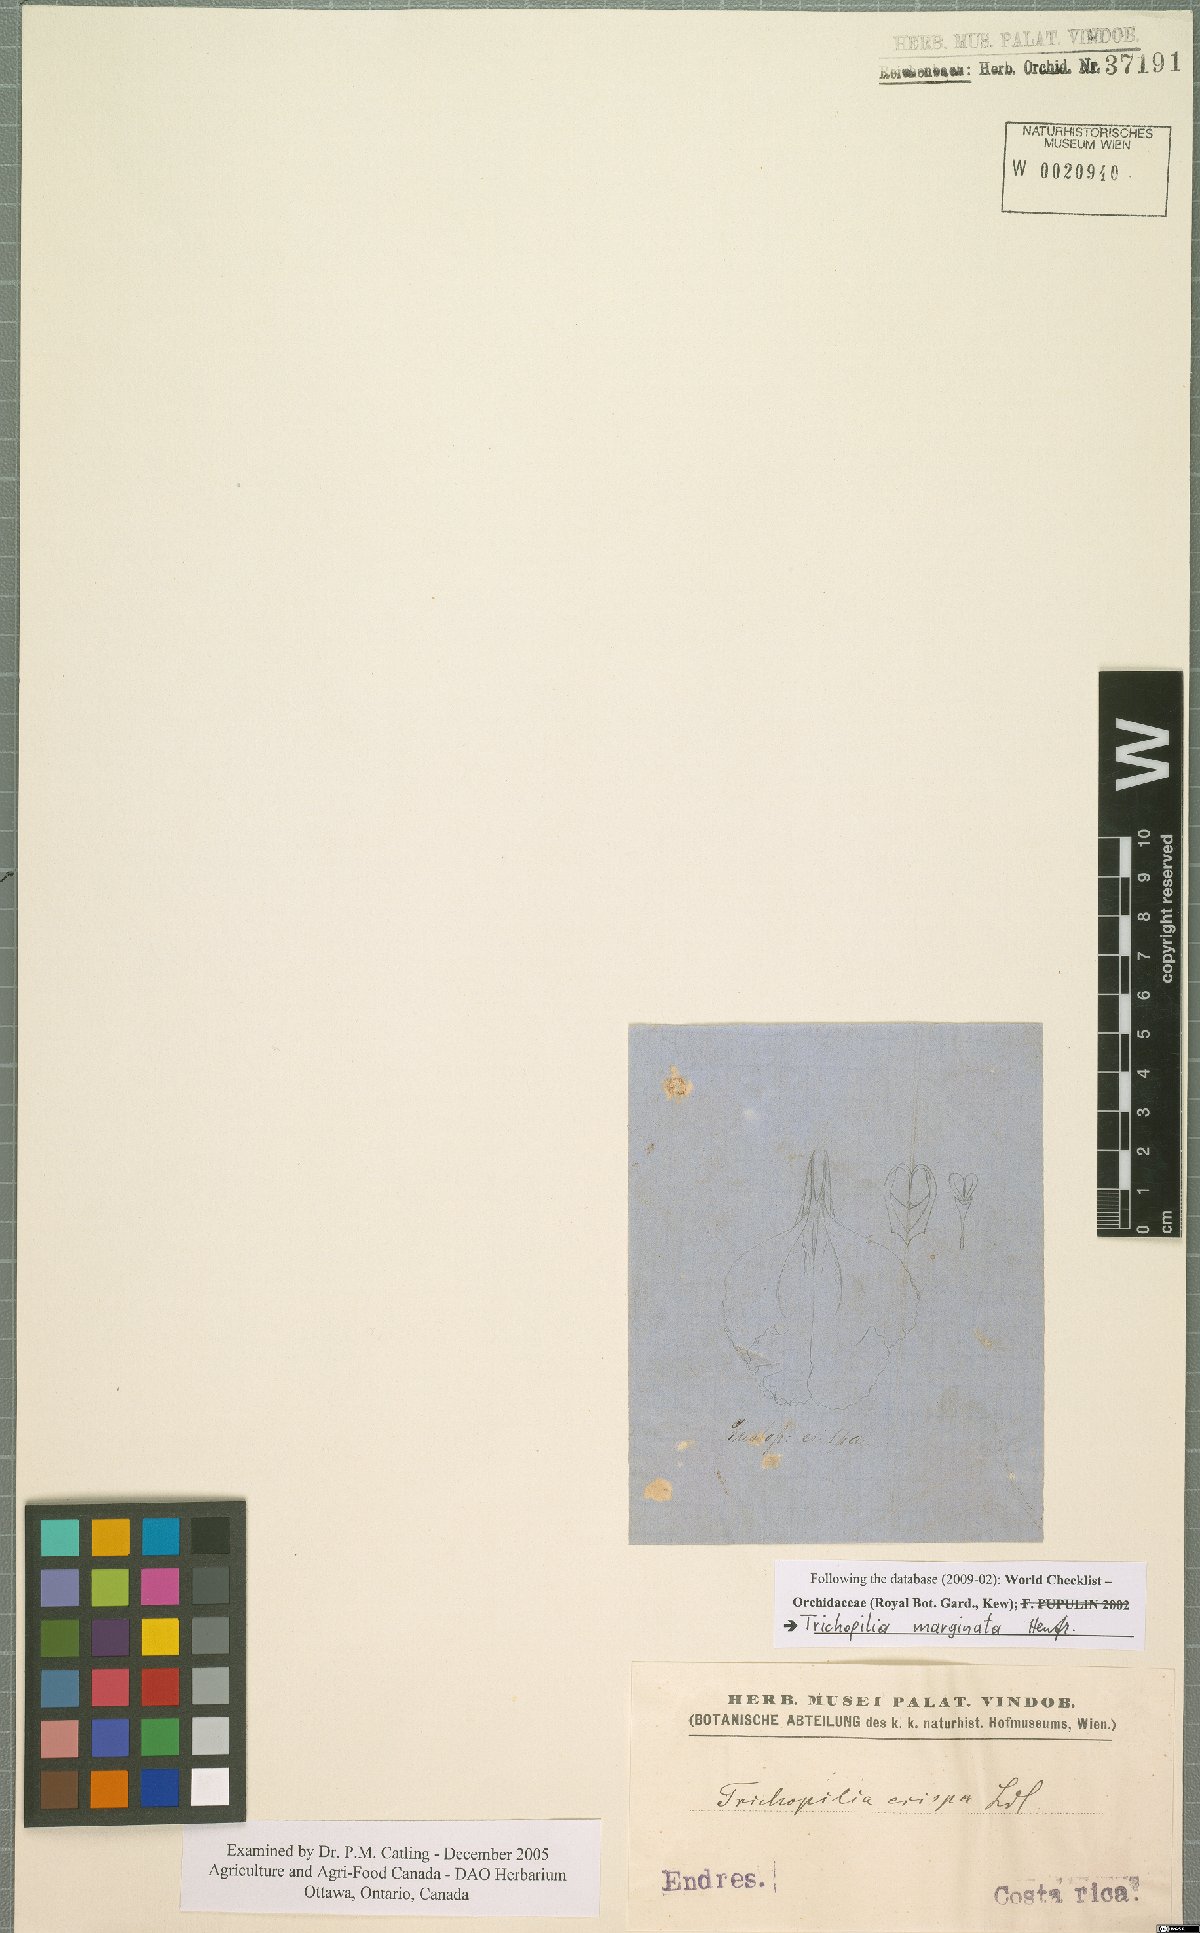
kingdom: Plantae
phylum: Tracheophyta
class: Liliopsida
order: Asparagales
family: Orchidaceae
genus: Trichopilia
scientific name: Trichopilia marginata
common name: Rimmed trichopilia
